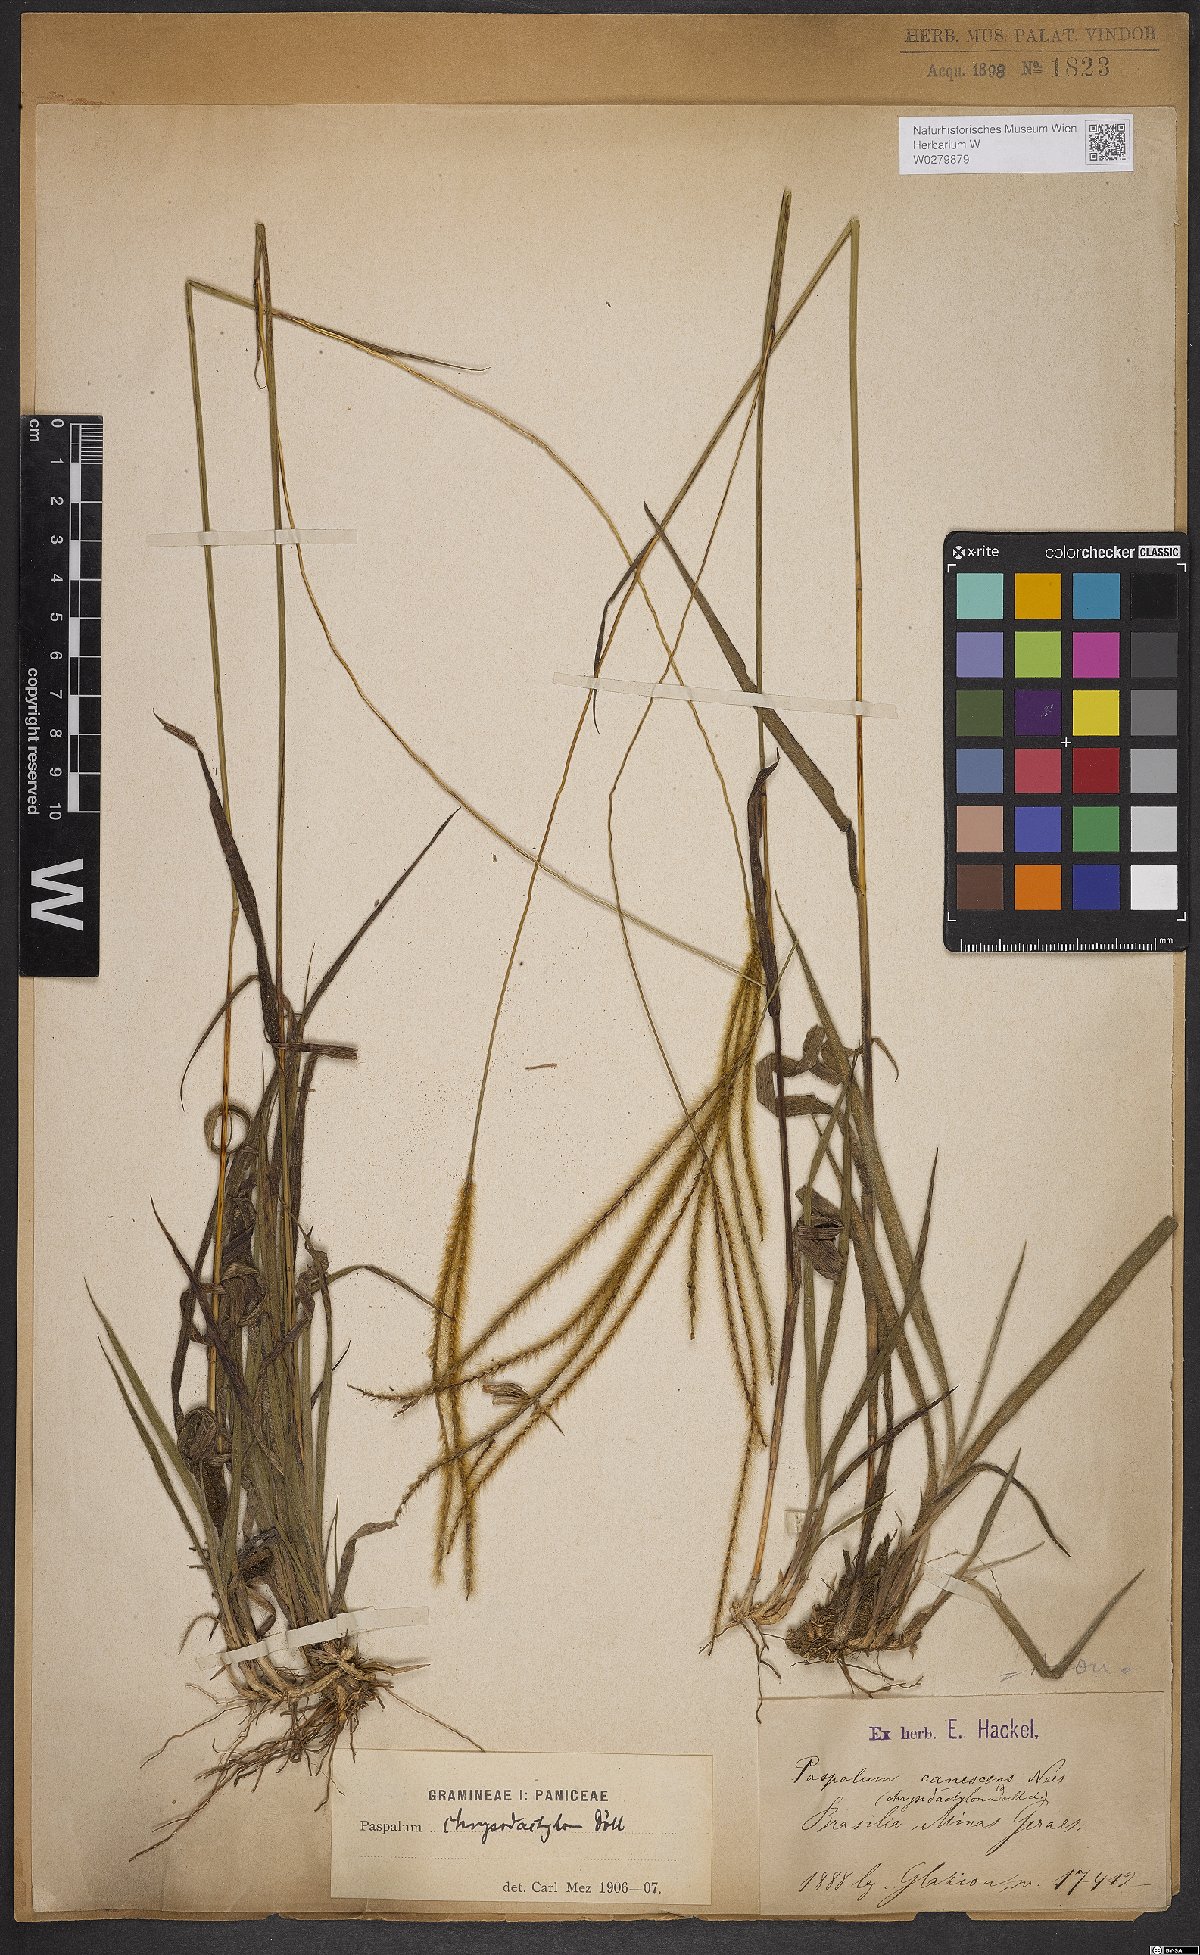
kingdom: Plantae
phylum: Tracheophyta
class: Liliopsida
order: Poales
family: Poaceae
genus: Axonopus
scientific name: Axonopus aureus
